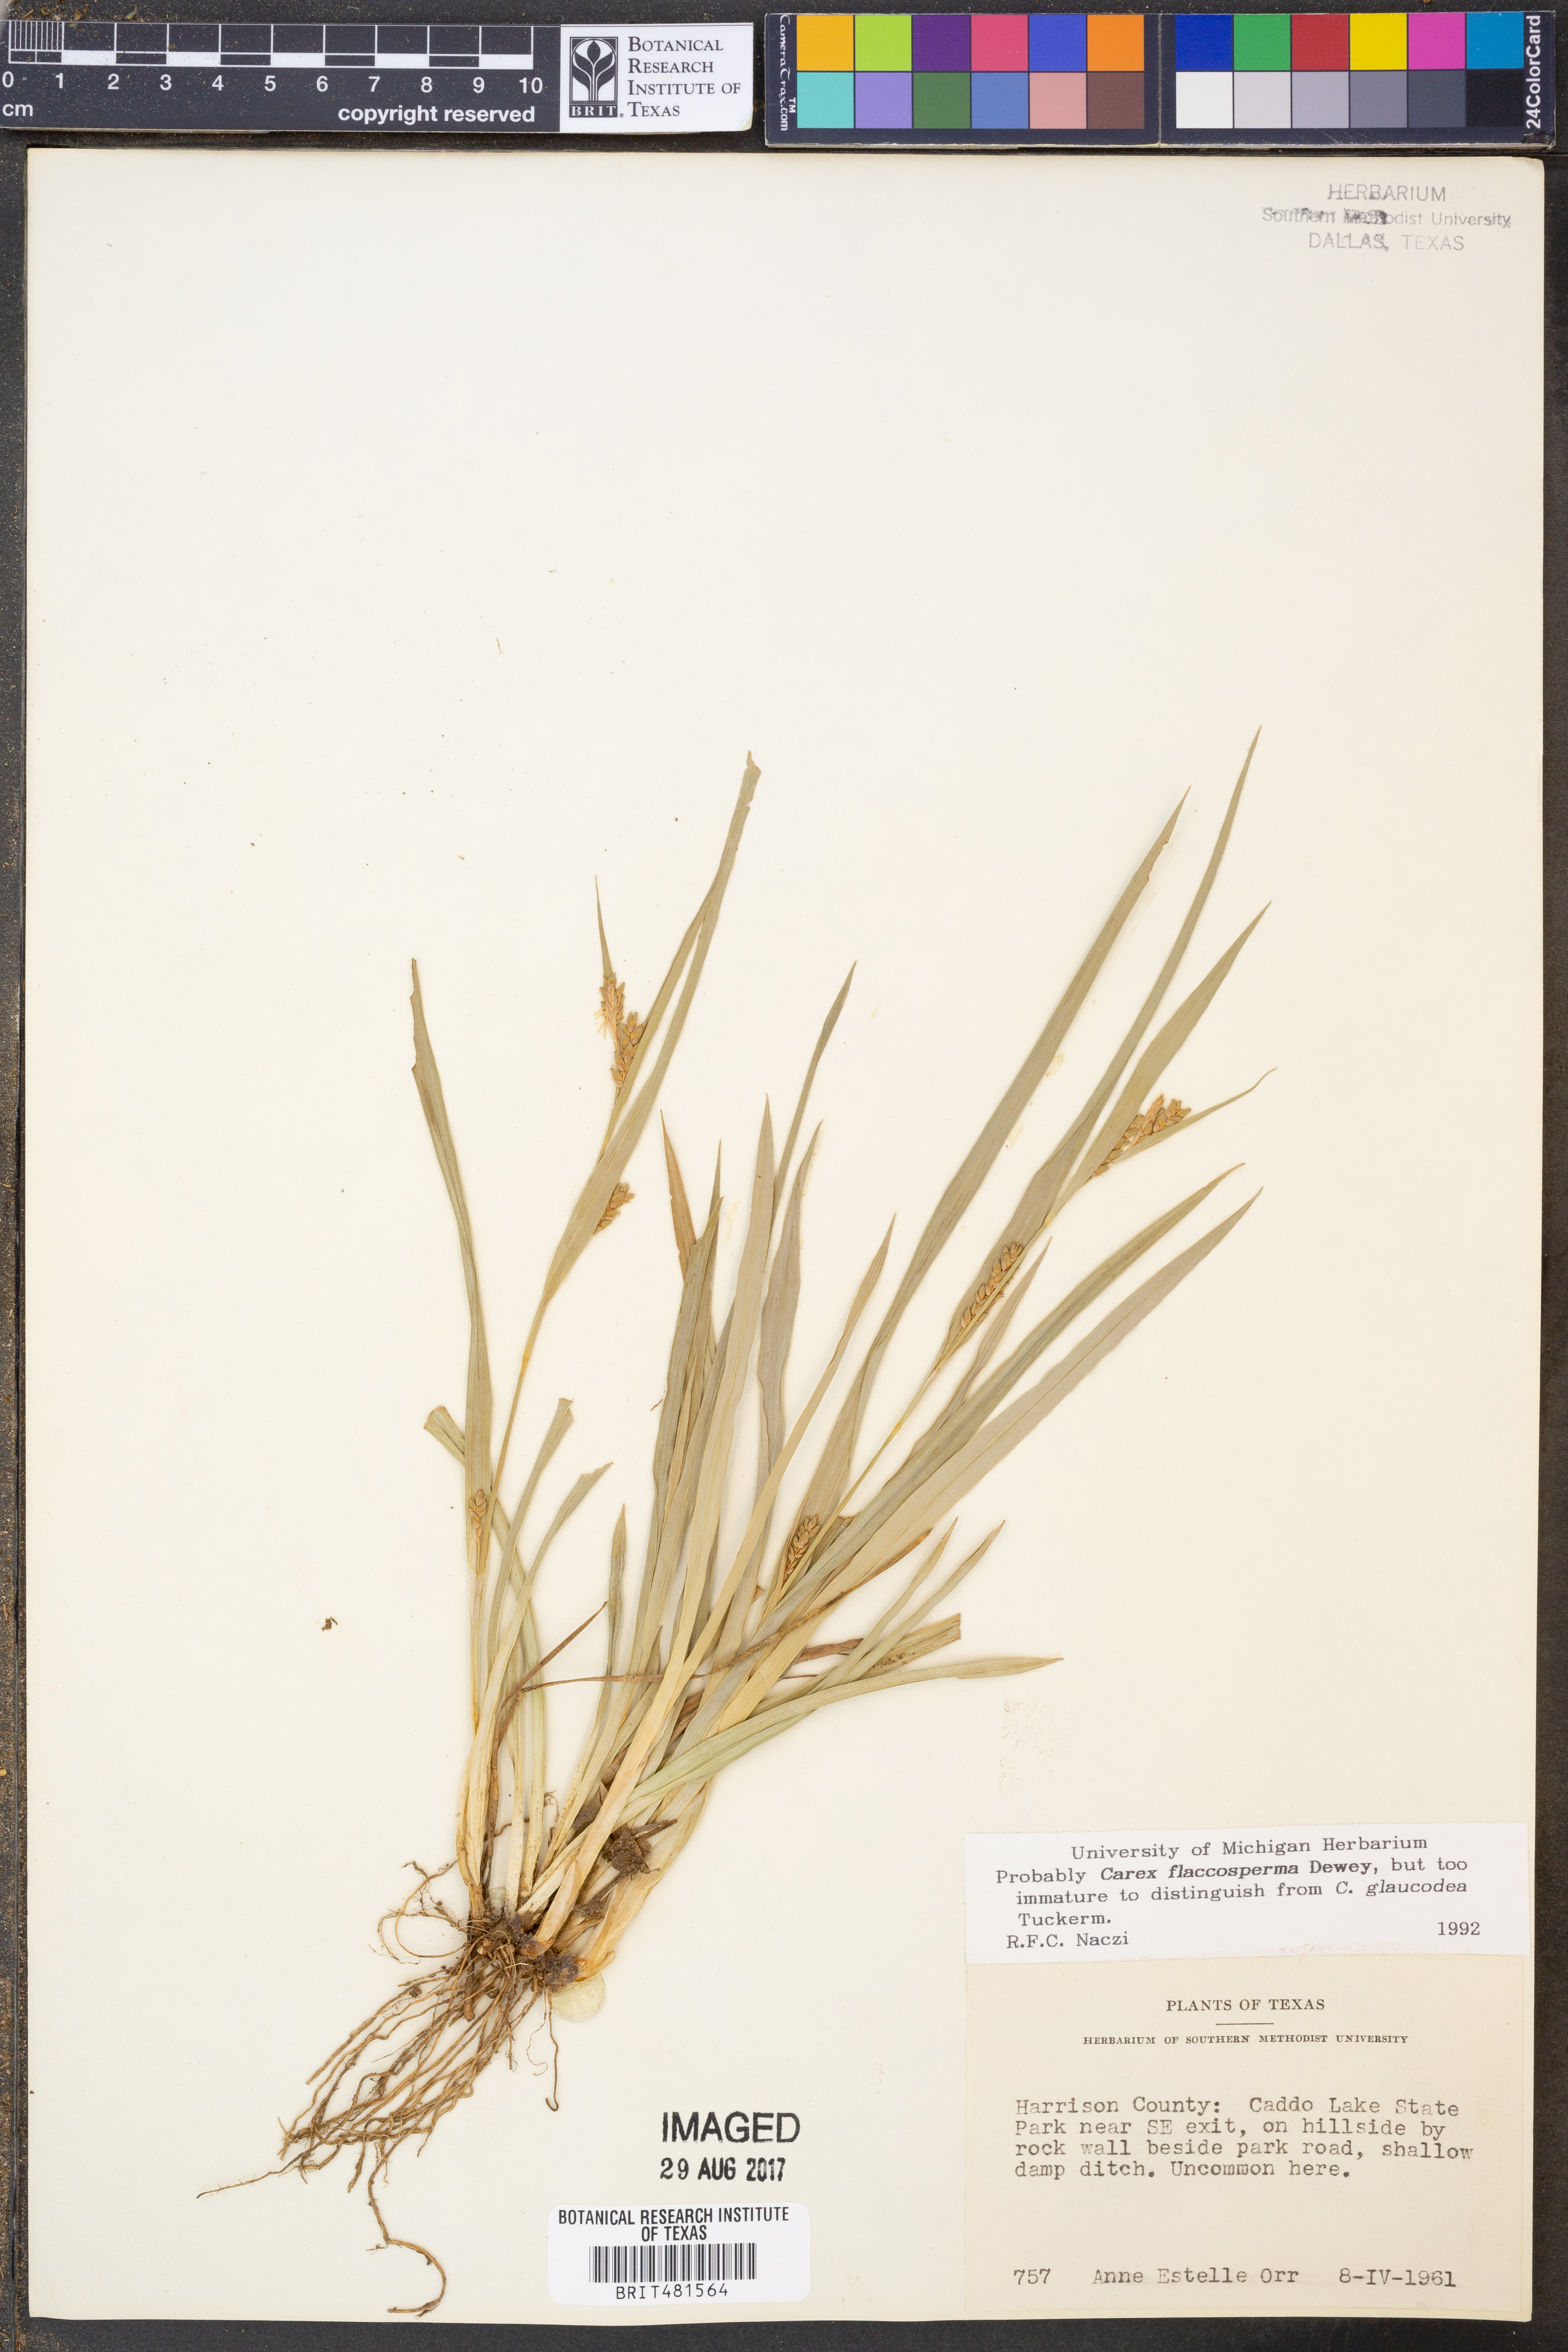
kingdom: Plantae
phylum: Tracheophyta
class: Liliopsida
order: Poales
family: Cyperaceae
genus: Carex
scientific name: Carex flaccosperma
